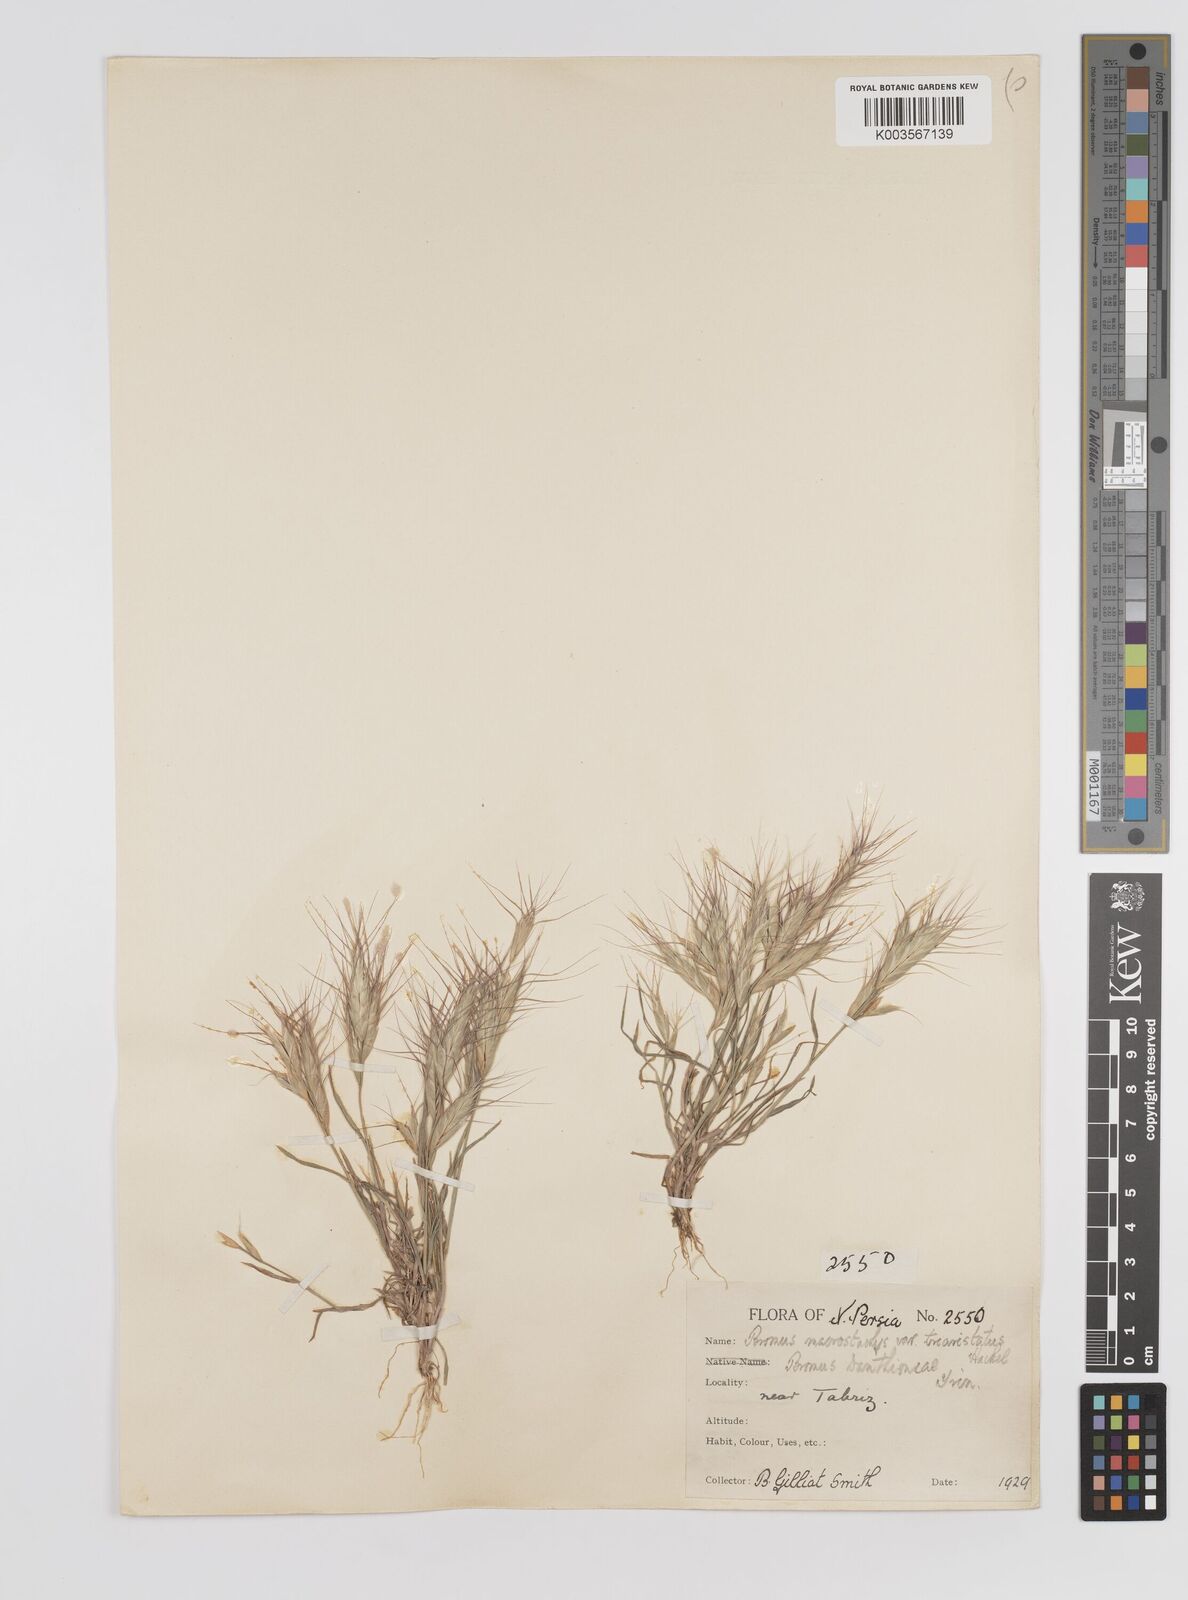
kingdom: Plantae
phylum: Tracheophyta
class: Liliopsida
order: Poales
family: Poaceae
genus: Bromus
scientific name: Bromus danthoniae
